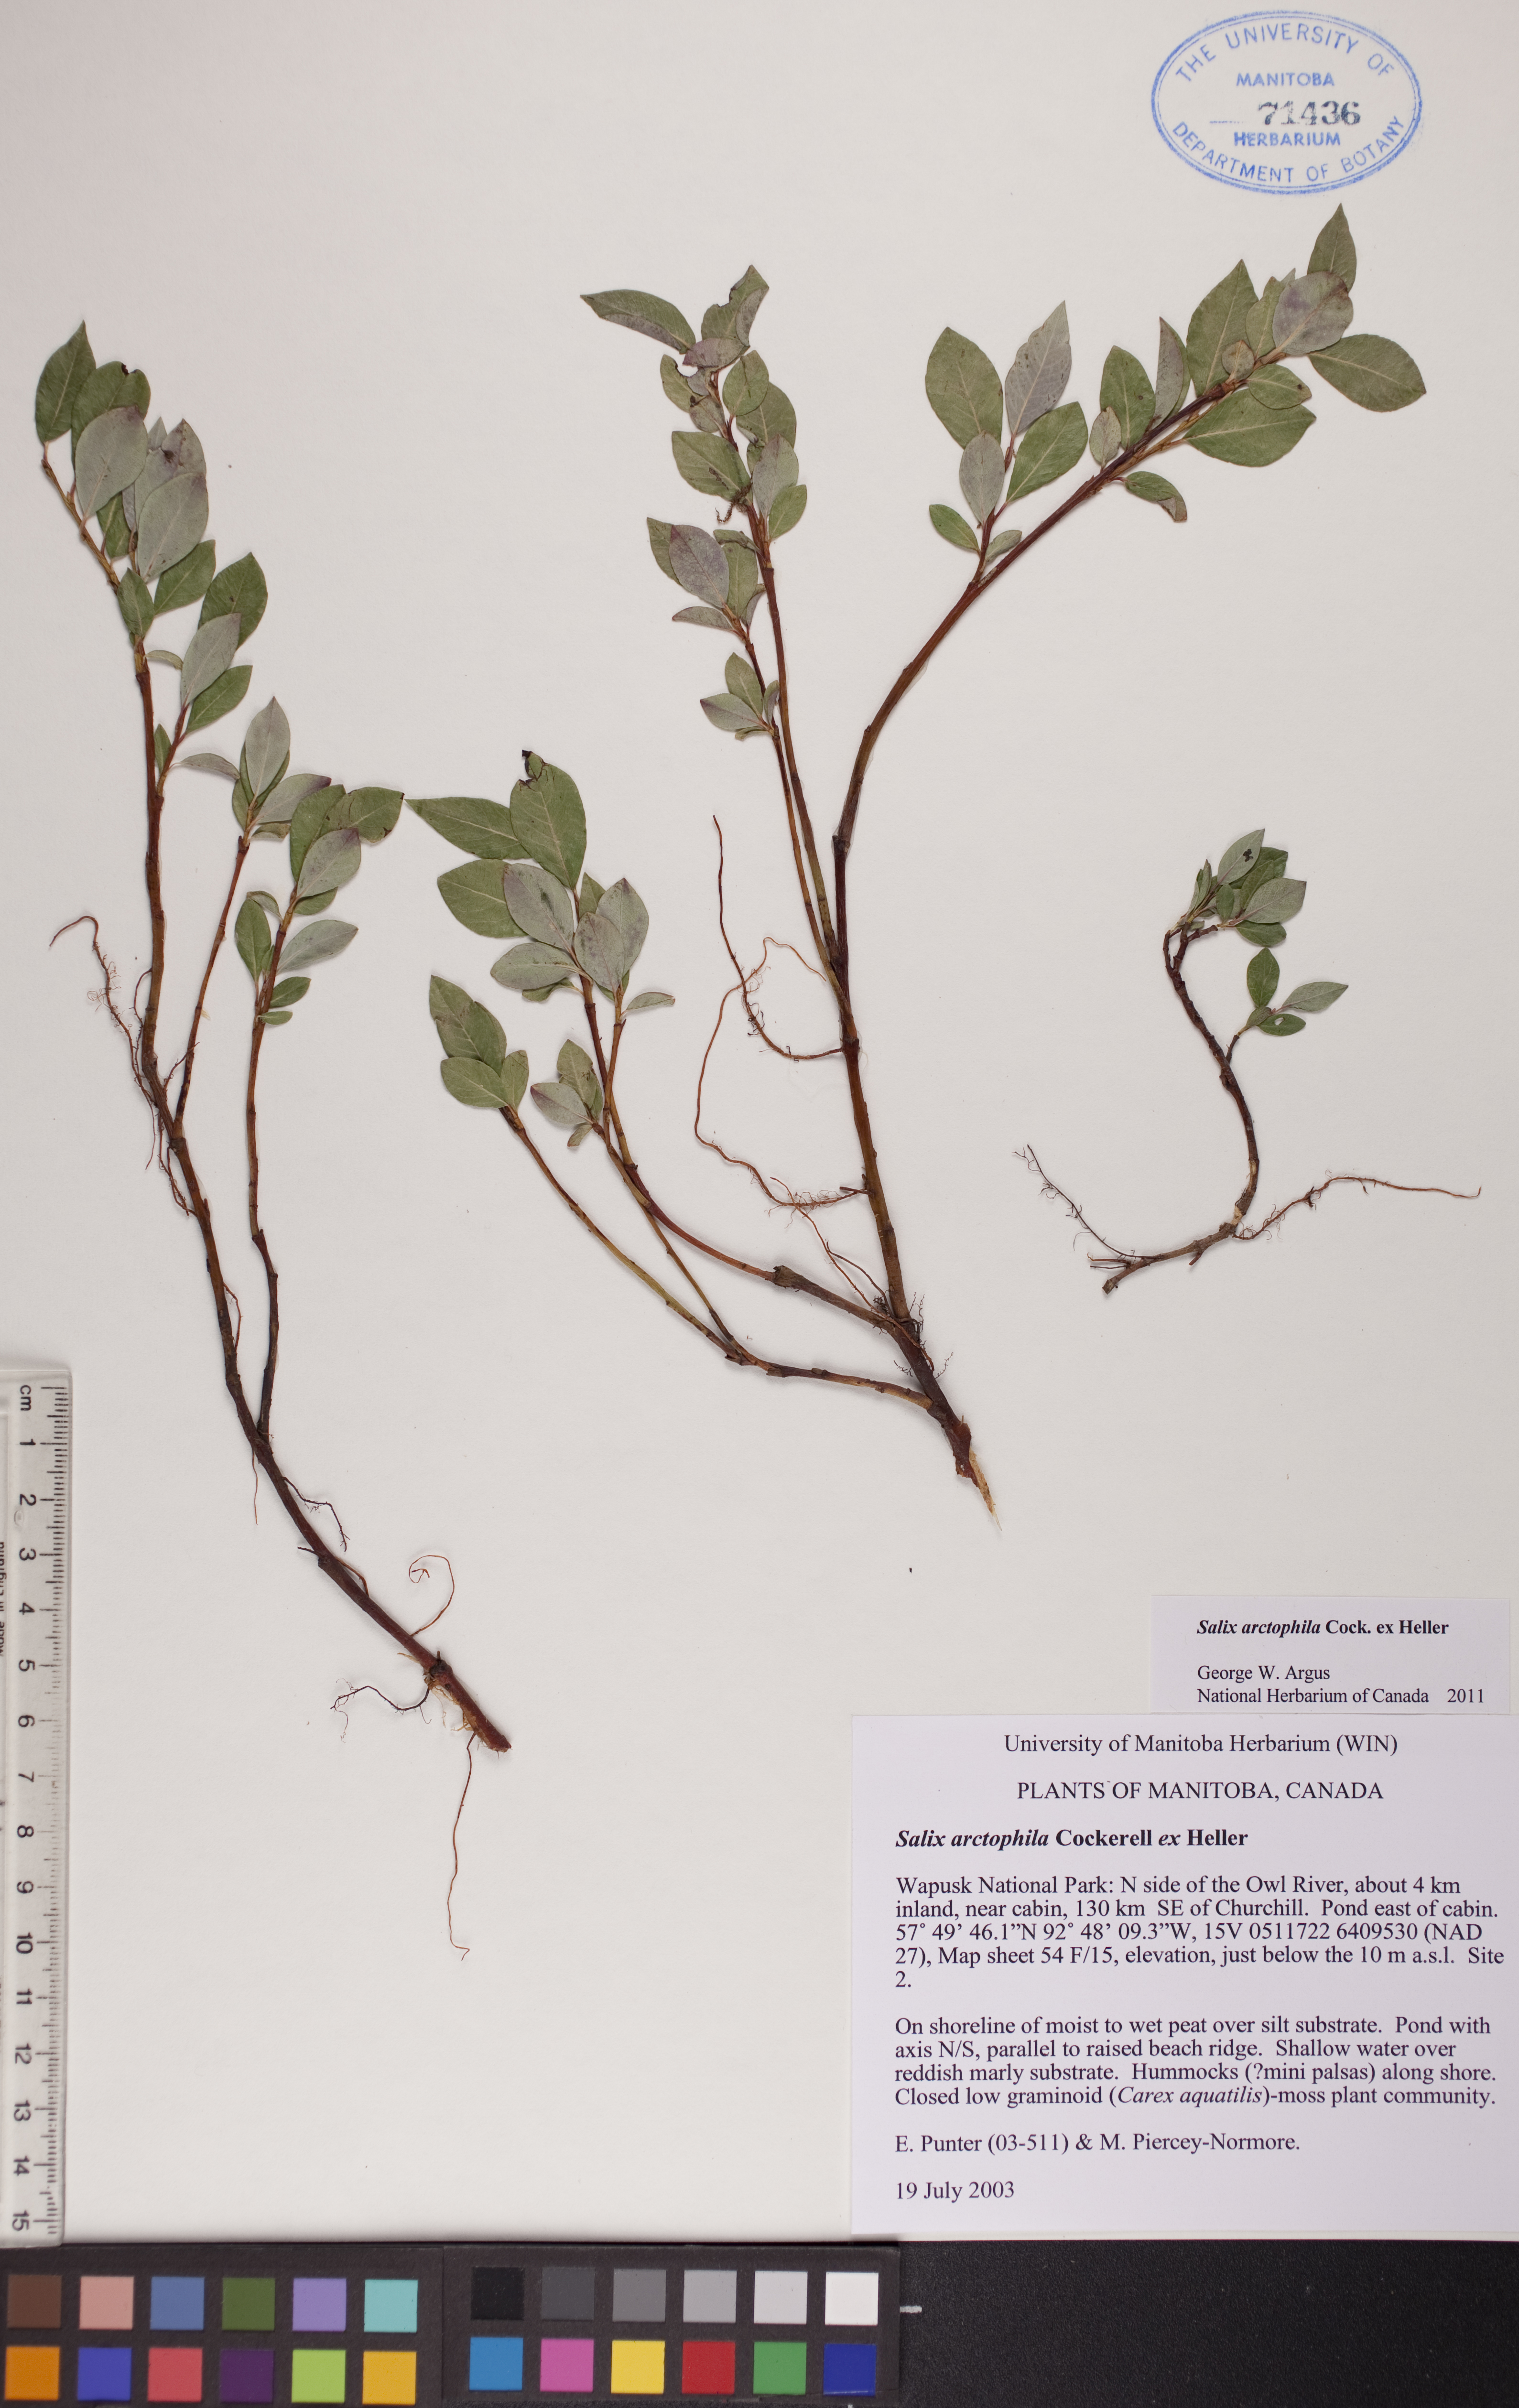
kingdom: Plantae
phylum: Tracheophyta
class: Magnoliopsida
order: Malpighiales
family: Salicaceae
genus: Salix
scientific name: Salix arctophila
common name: Greenland willow
